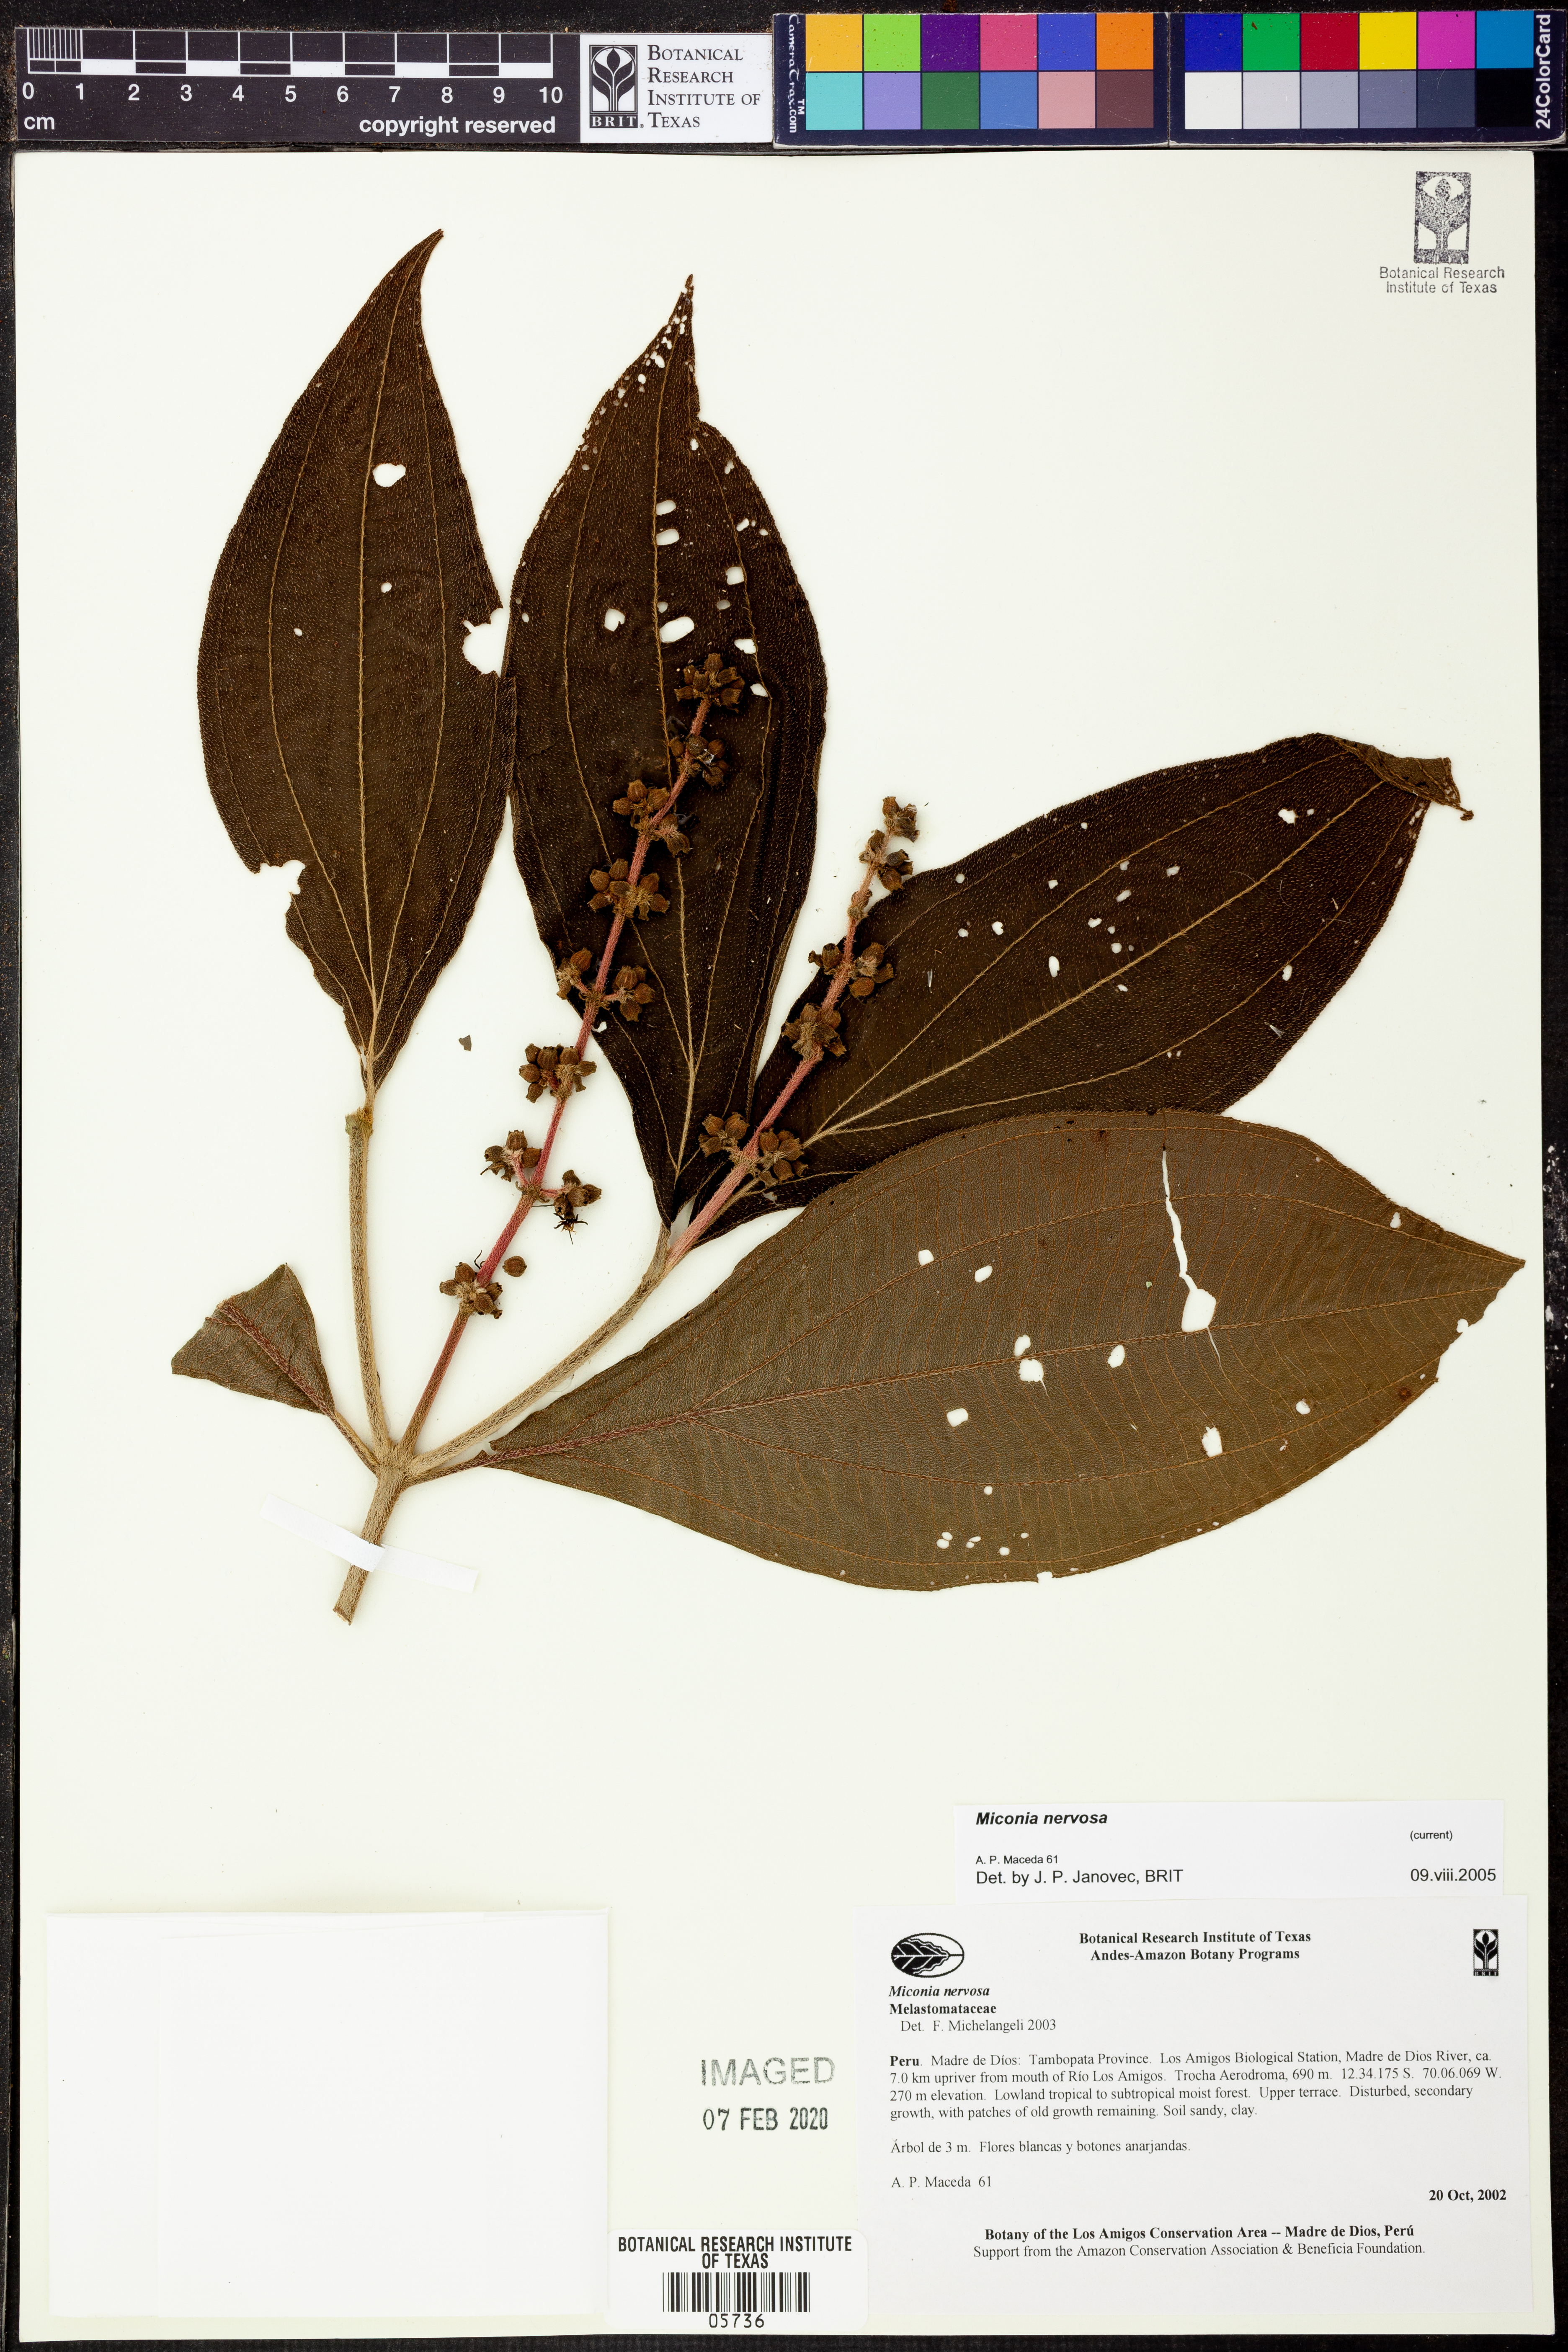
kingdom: Plantae
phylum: Tracheophyta
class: Magnoliopsida
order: Myrtales
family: Melastomataceae
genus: Miconia
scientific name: Miconia nervosa
